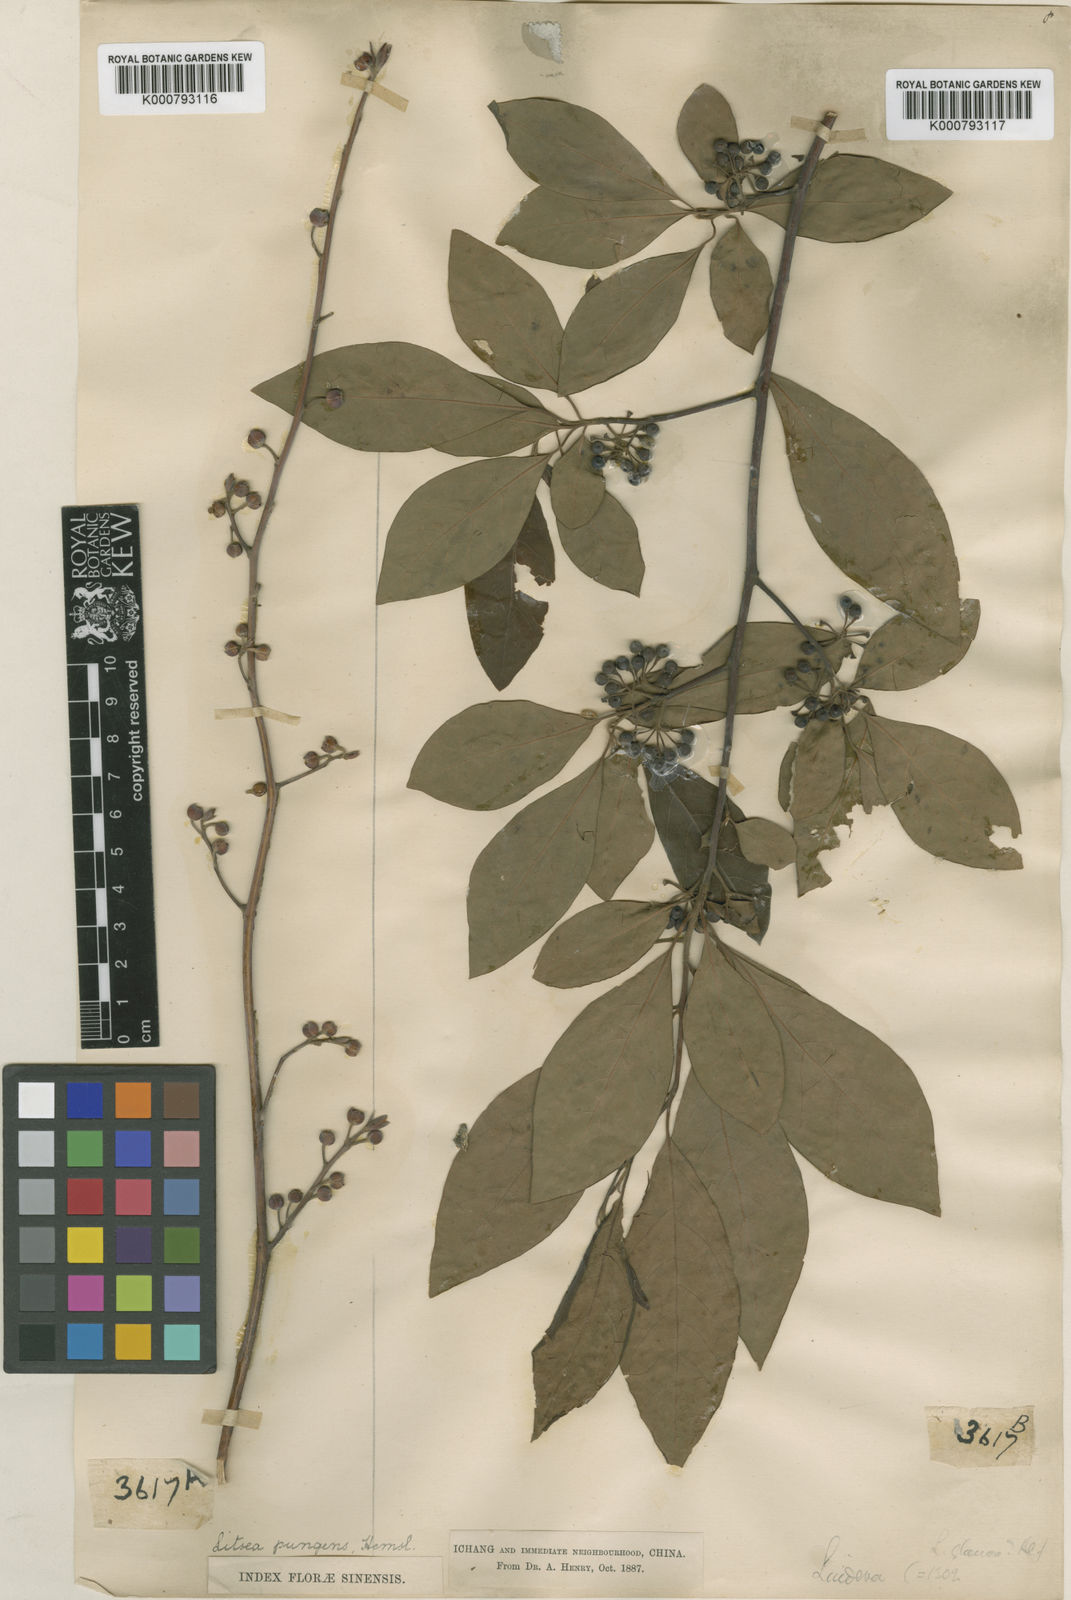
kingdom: Plantae
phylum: Tracheophyta
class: Magnoliopsida
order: Laurales
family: Lauraceae
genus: Litsea
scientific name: Litsea pungens
